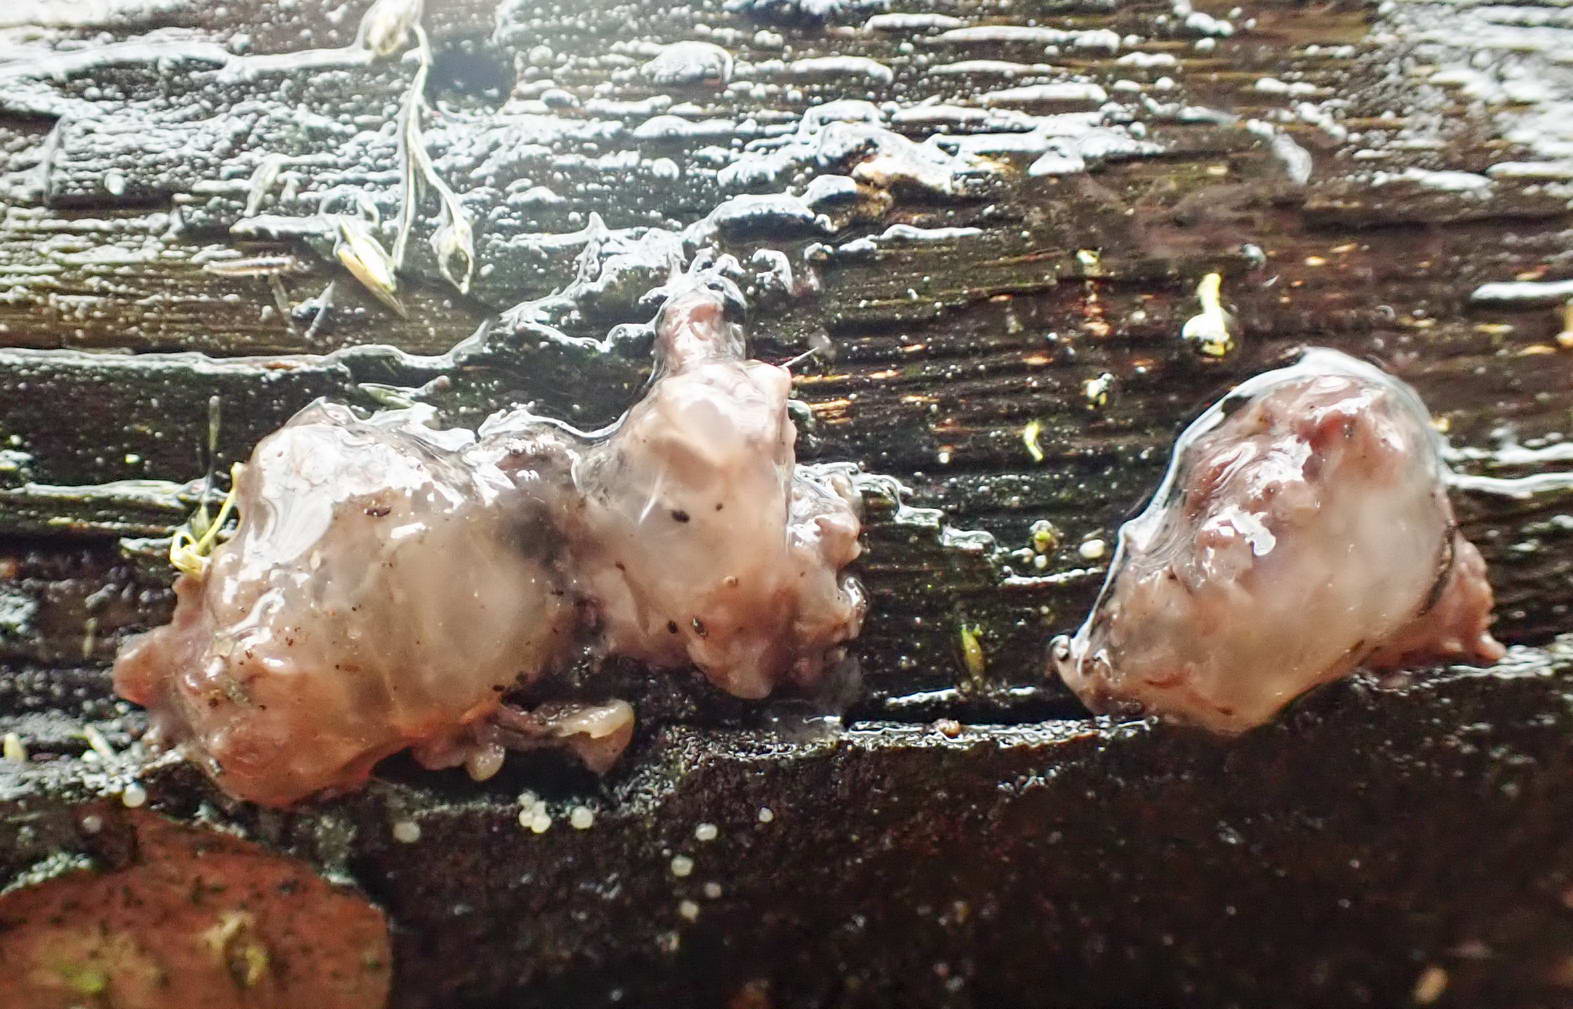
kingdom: Fungi
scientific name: Fungi
